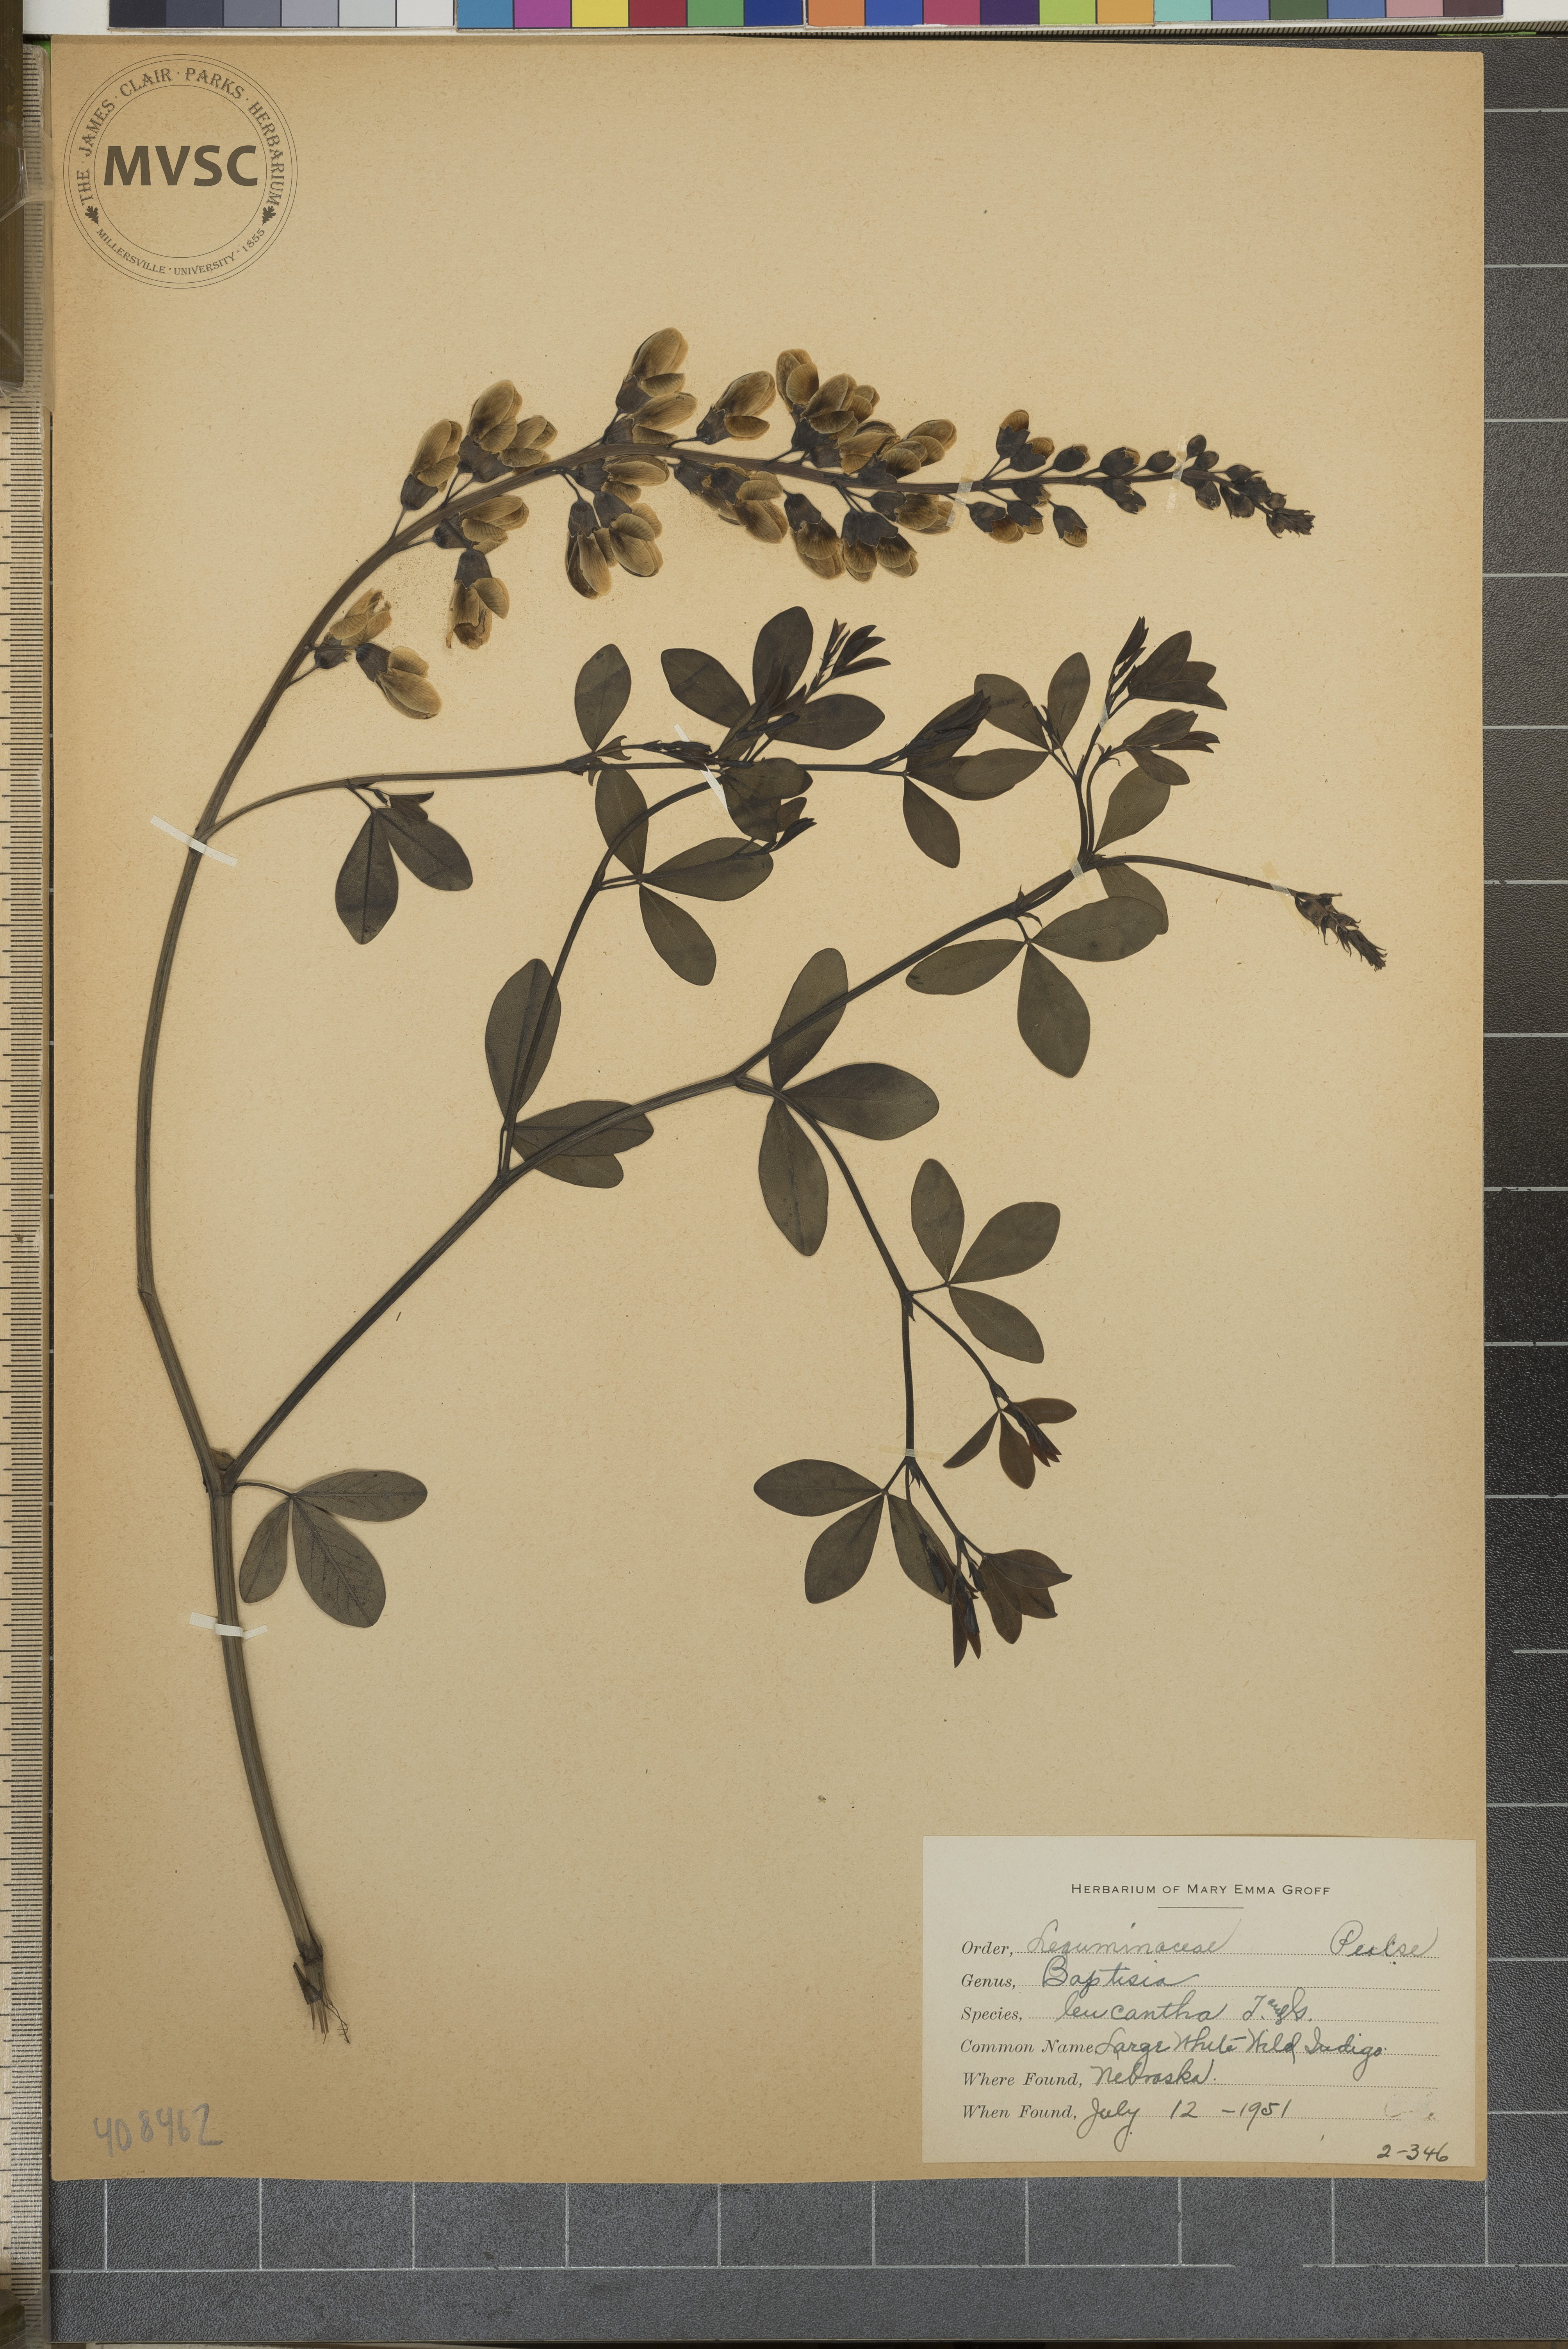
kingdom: Plantae
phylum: Tracheophyta
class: Magnoliopsida
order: Fabales
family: Fabaceae
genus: Baptisia
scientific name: Baptisia alba
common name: Large White Wild Indigo
